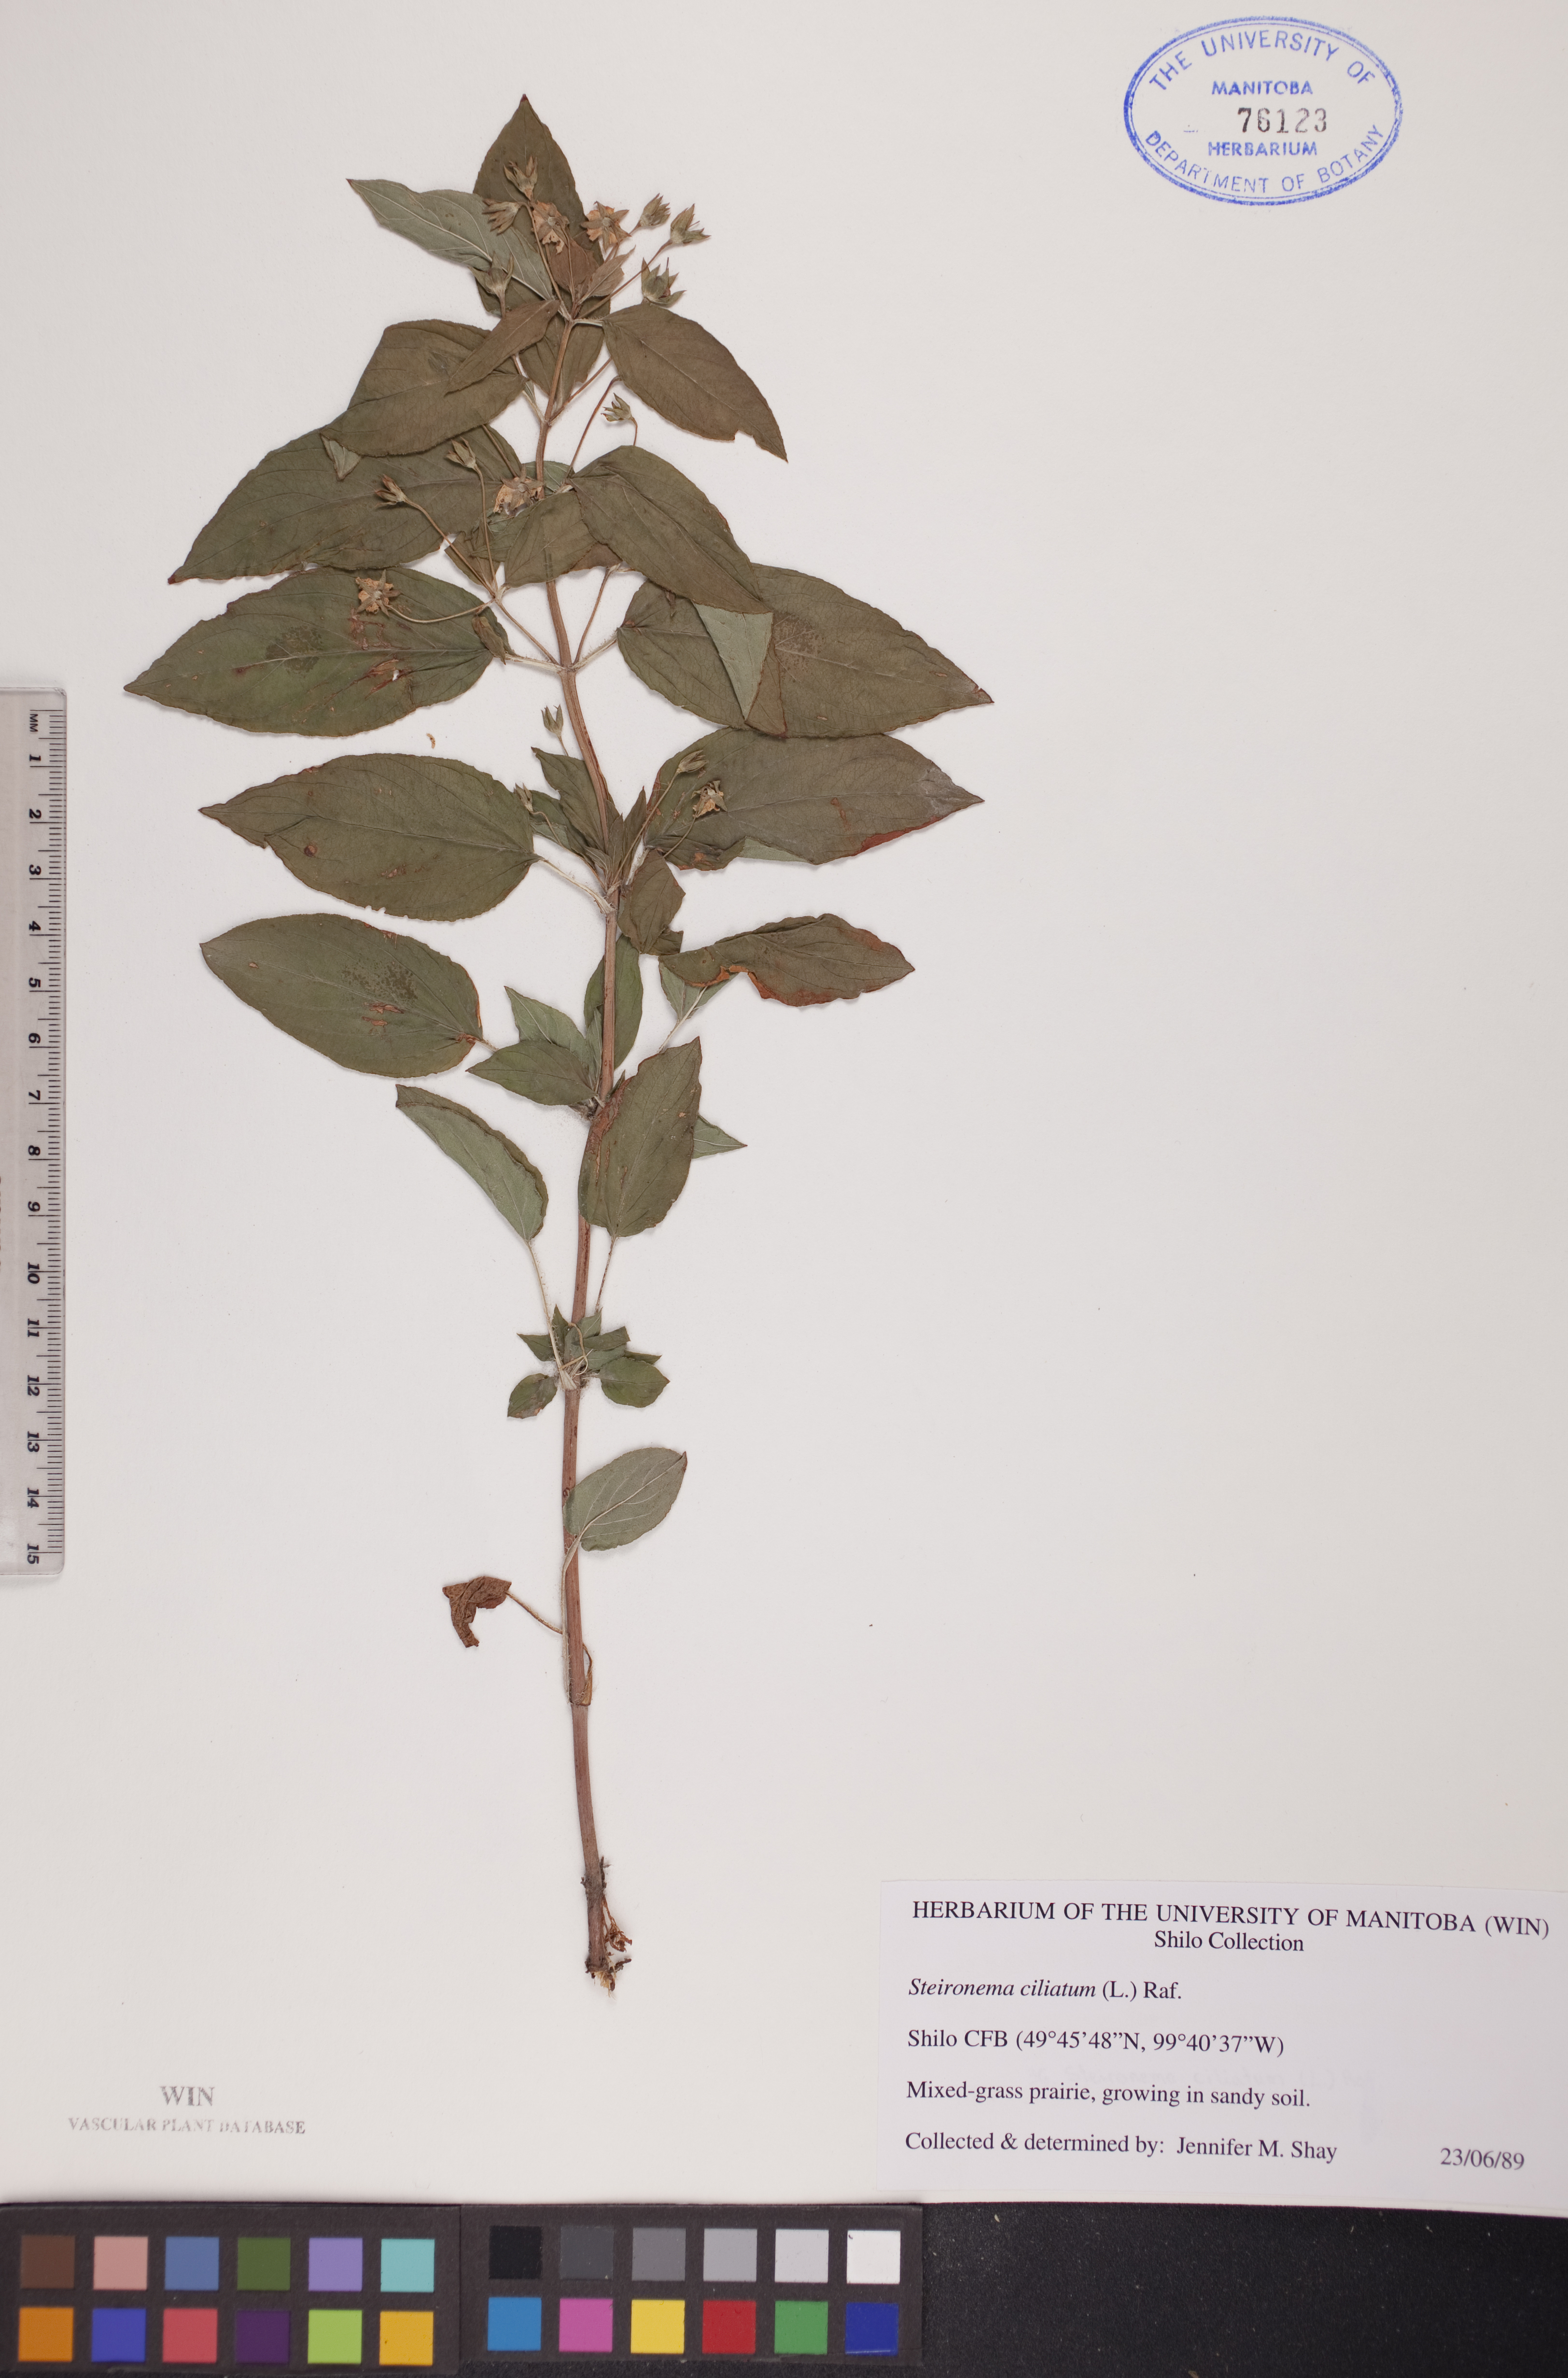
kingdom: Plantae
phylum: Tracheophyta
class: Magnoliopsida
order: Ericales
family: Primulaceae
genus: Lysimachia
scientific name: Lysimachia ciliata
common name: Fringed loosestrife
